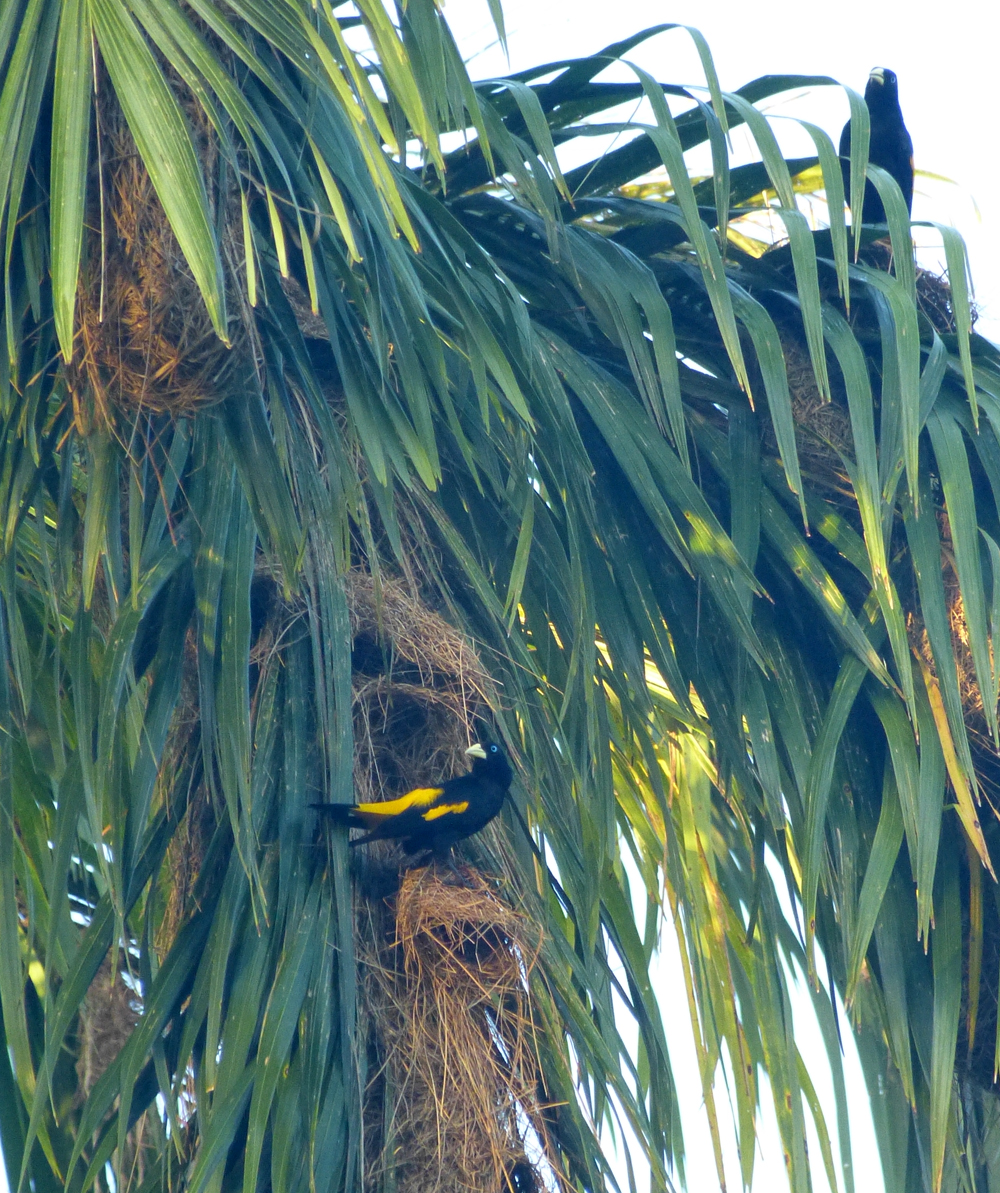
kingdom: Animalia
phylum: Chordata
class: Aves
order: Passeriformes
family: Icteridae
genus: Cacicus
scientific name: Cacicus cela
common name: Yellow-rumped cacique
